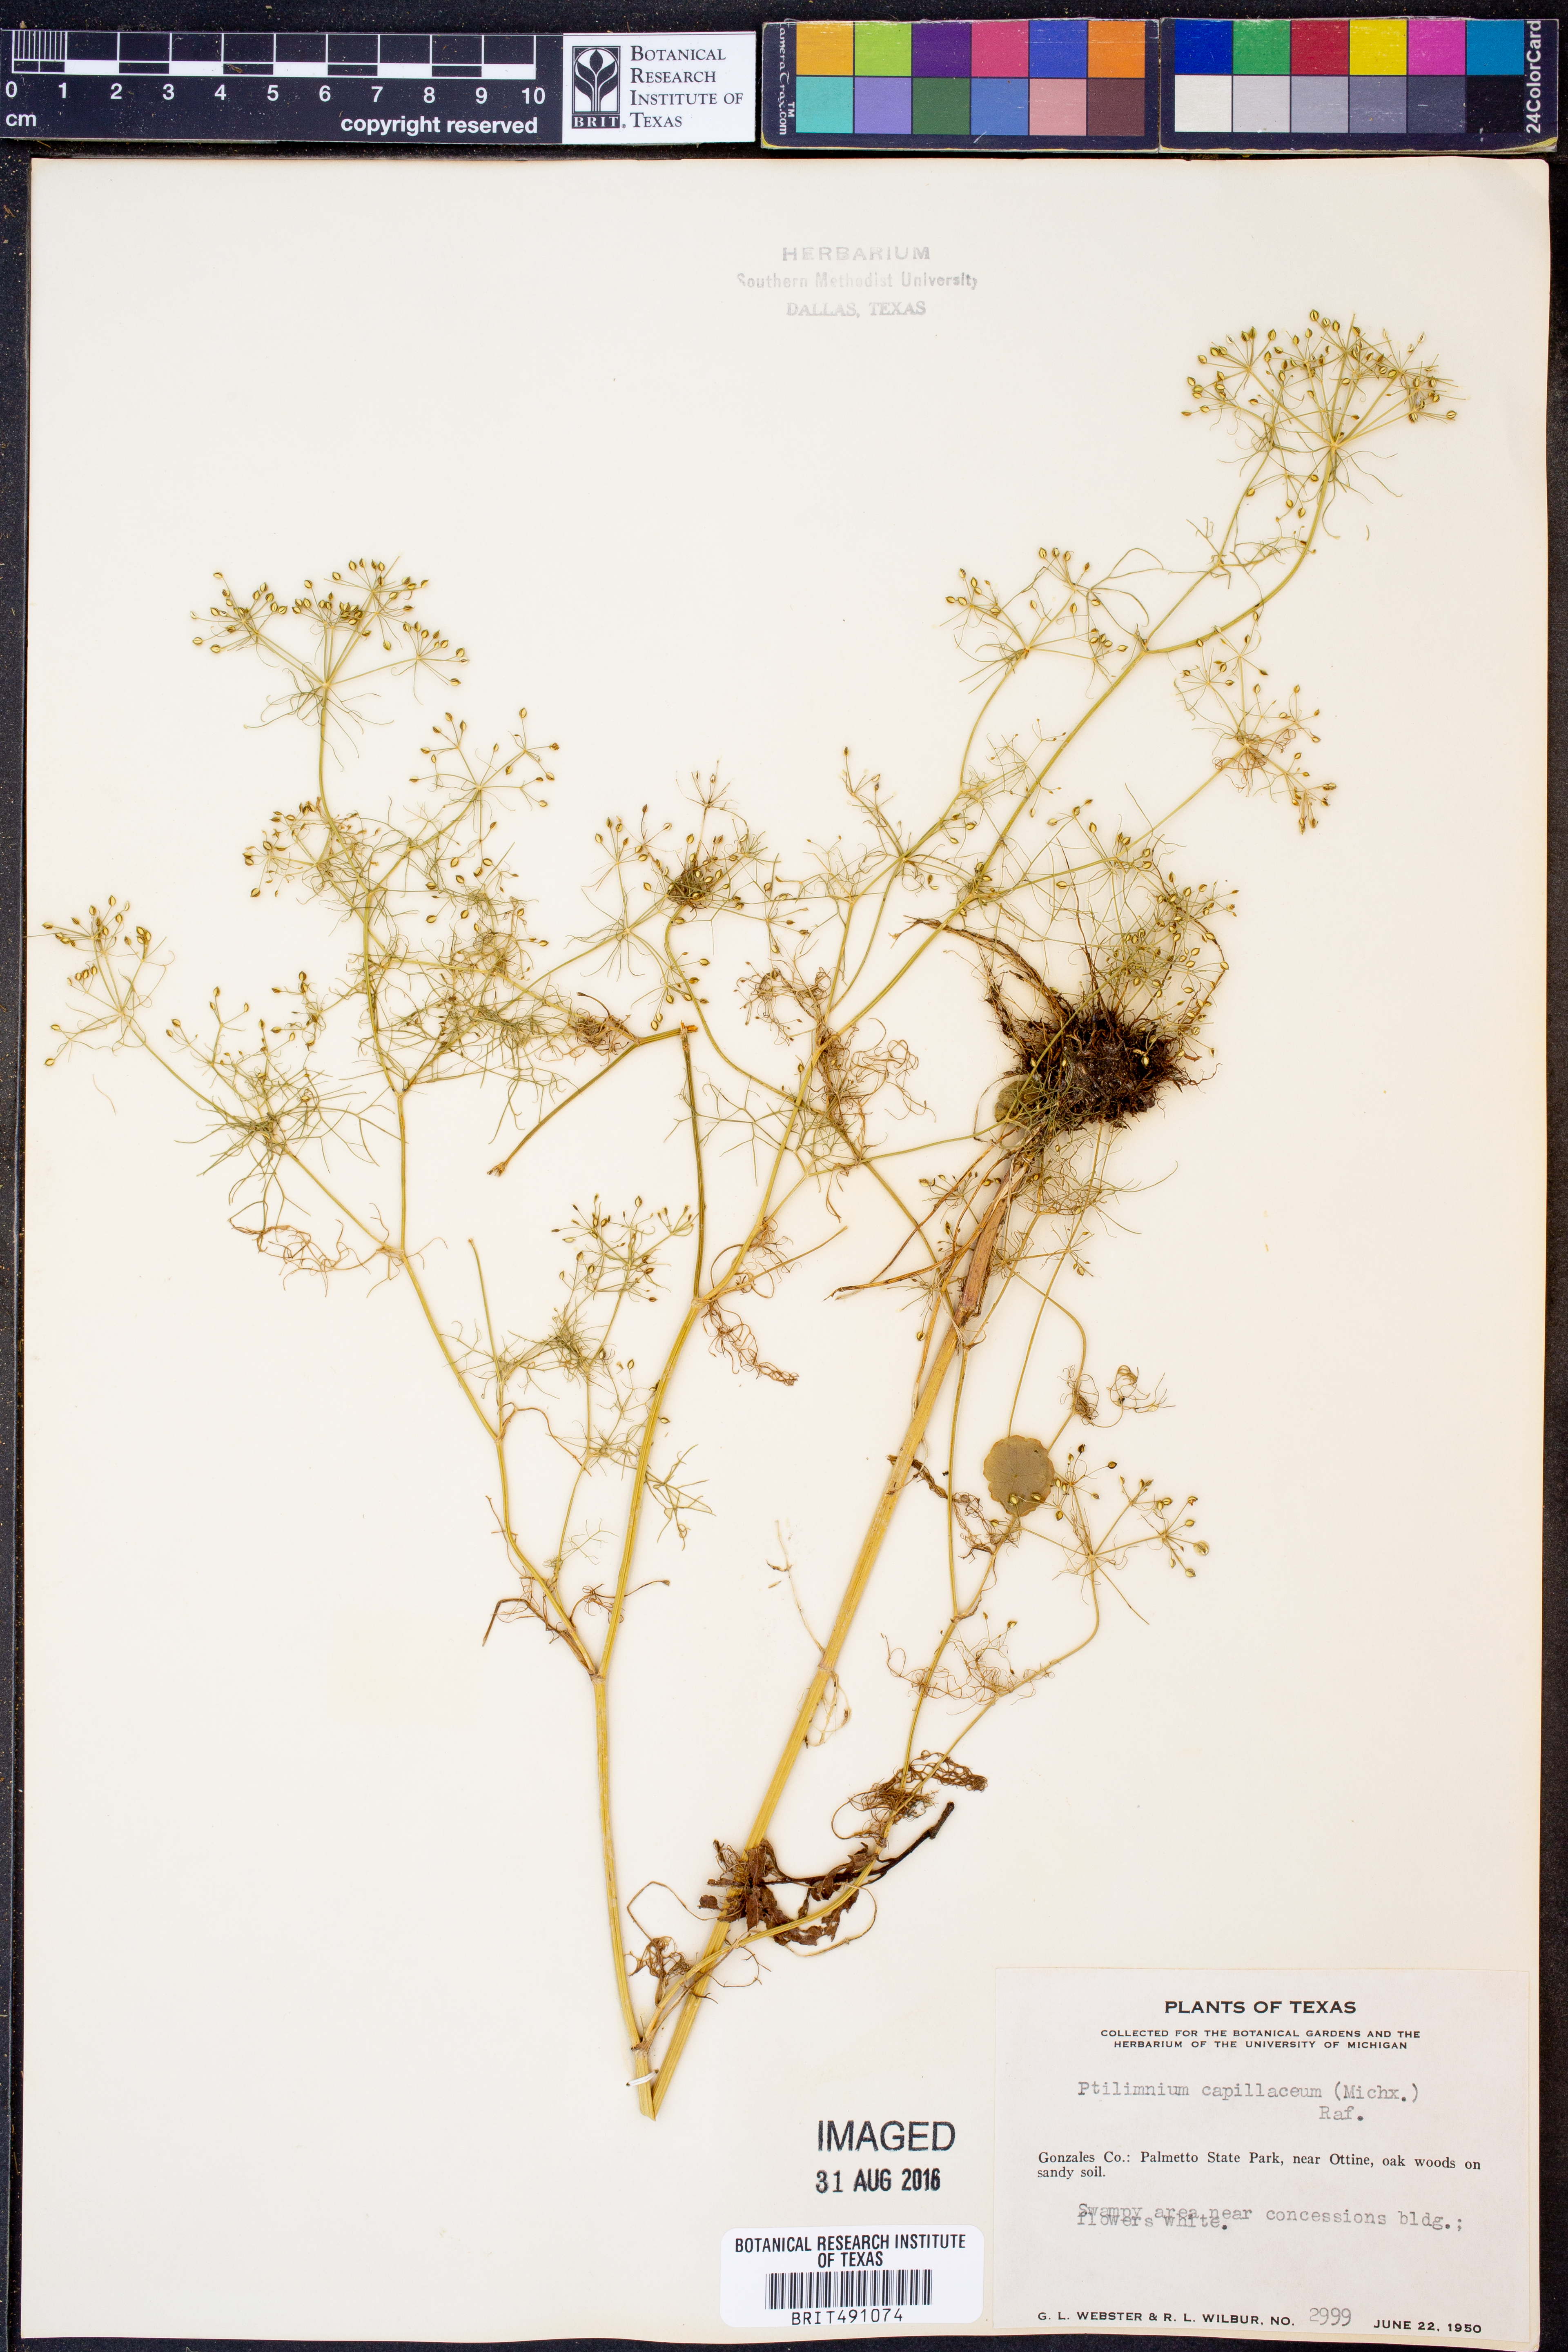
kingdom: Plantae
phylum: Tracheophyta
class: Magnoliopsida
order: Apiales
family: Apiaceae
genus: Ptilimnium
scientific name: Ptilimnium capillaceum
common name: Herbwilliam
